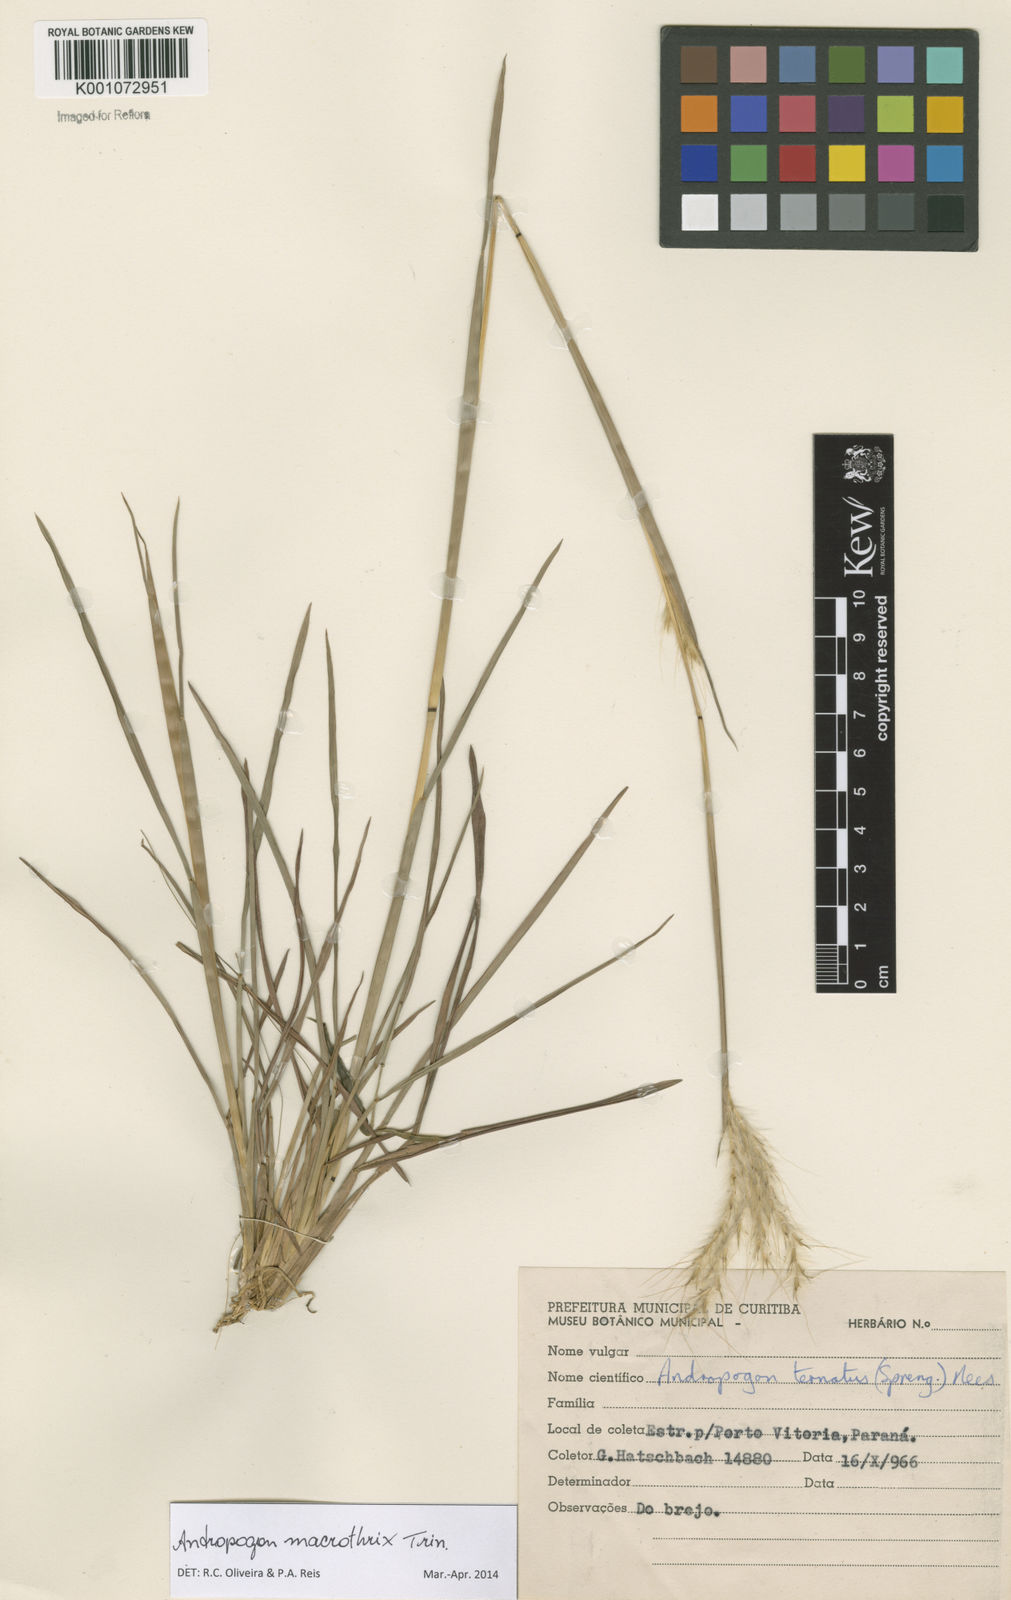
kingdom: Plantae
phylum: Tracheophyta
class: Liliopsida
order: Poales
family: Poaceae
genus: Andropogon
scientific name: Andropogon macrothrix
